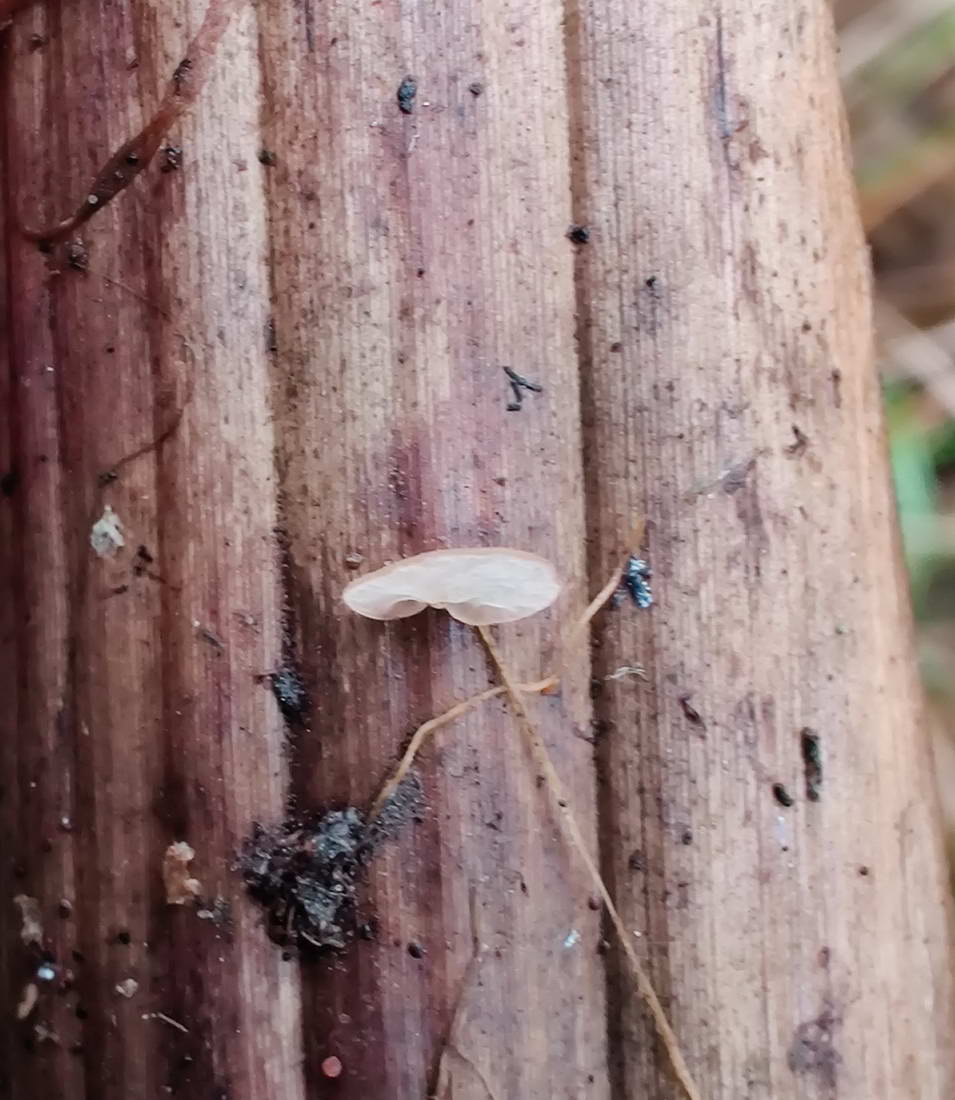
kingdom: Fungi
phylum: Basidiomycota
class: Agaricomycetes
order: Agaricales
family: Physalacriaceae
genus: Gloiocephala
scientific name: Gloiocephala menieri
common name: dunhammer-spatelhat
